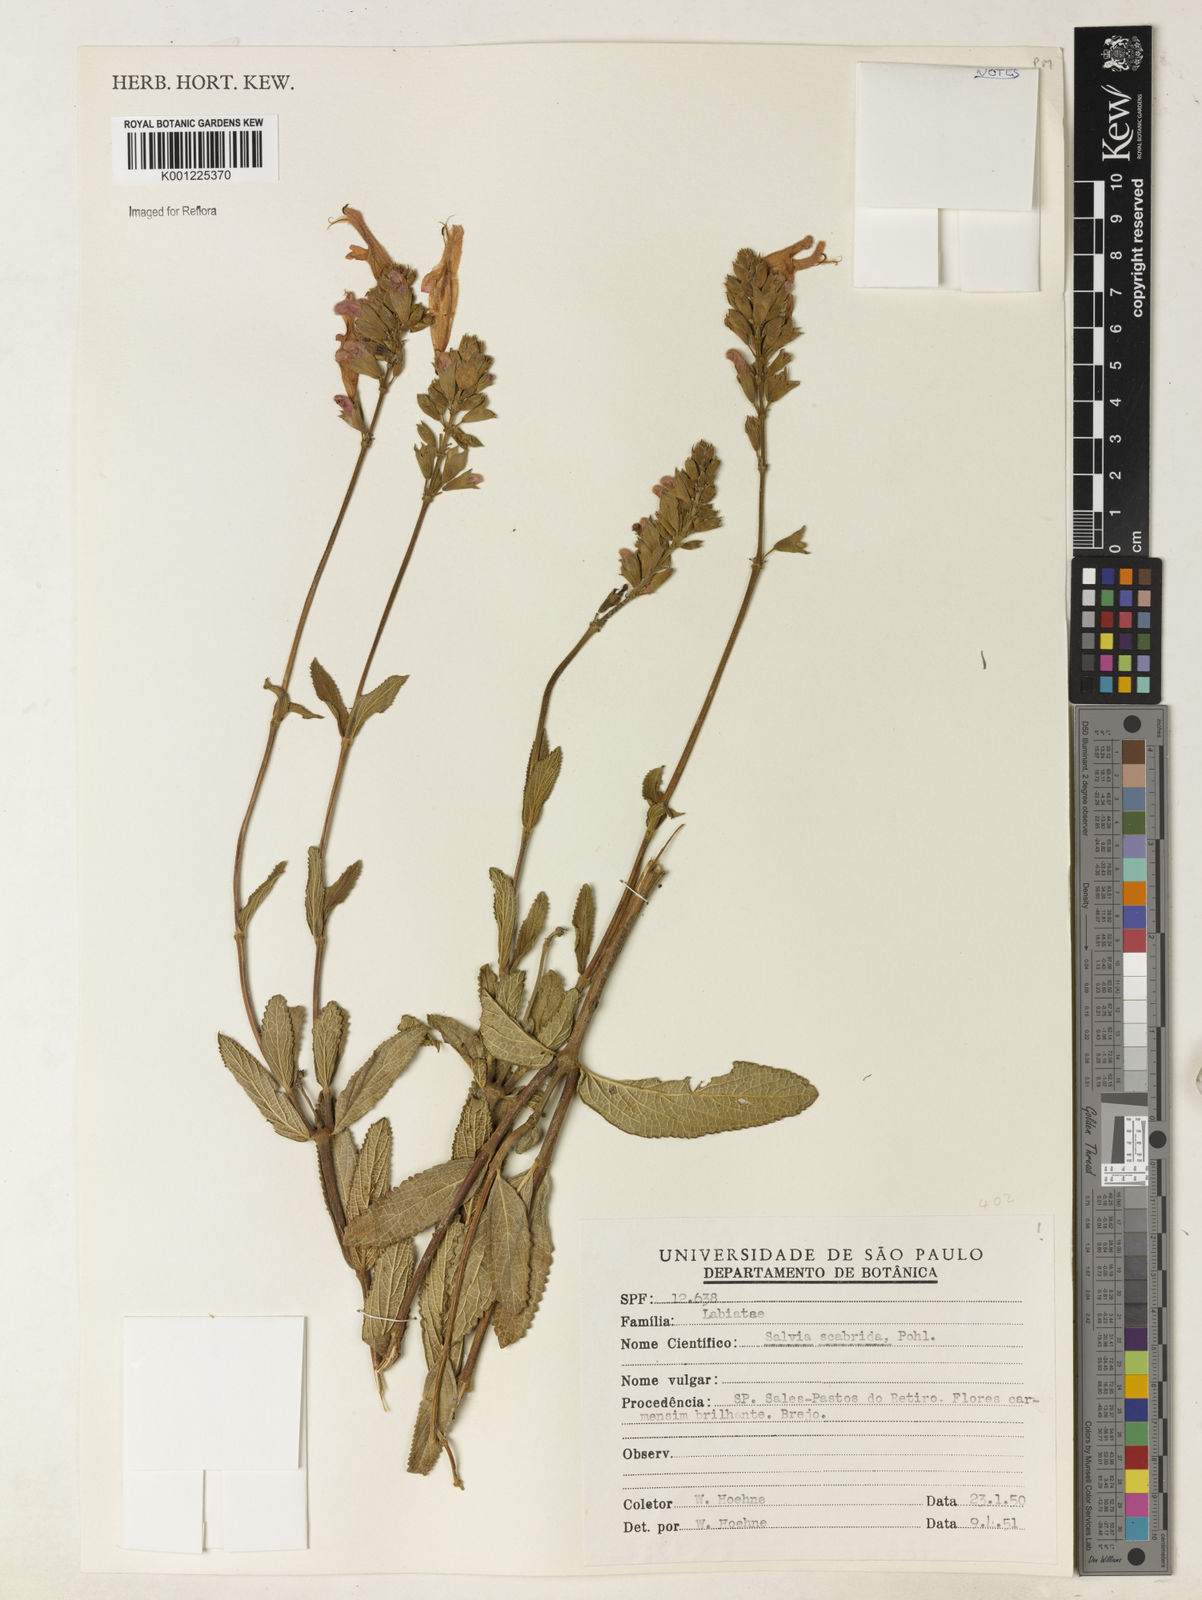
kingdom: Plantae
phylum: Tracheophyta
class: Magnoliopsida
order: Lamiales
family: Lamiaceae
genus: Salvia
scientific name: Salvia scabrida
